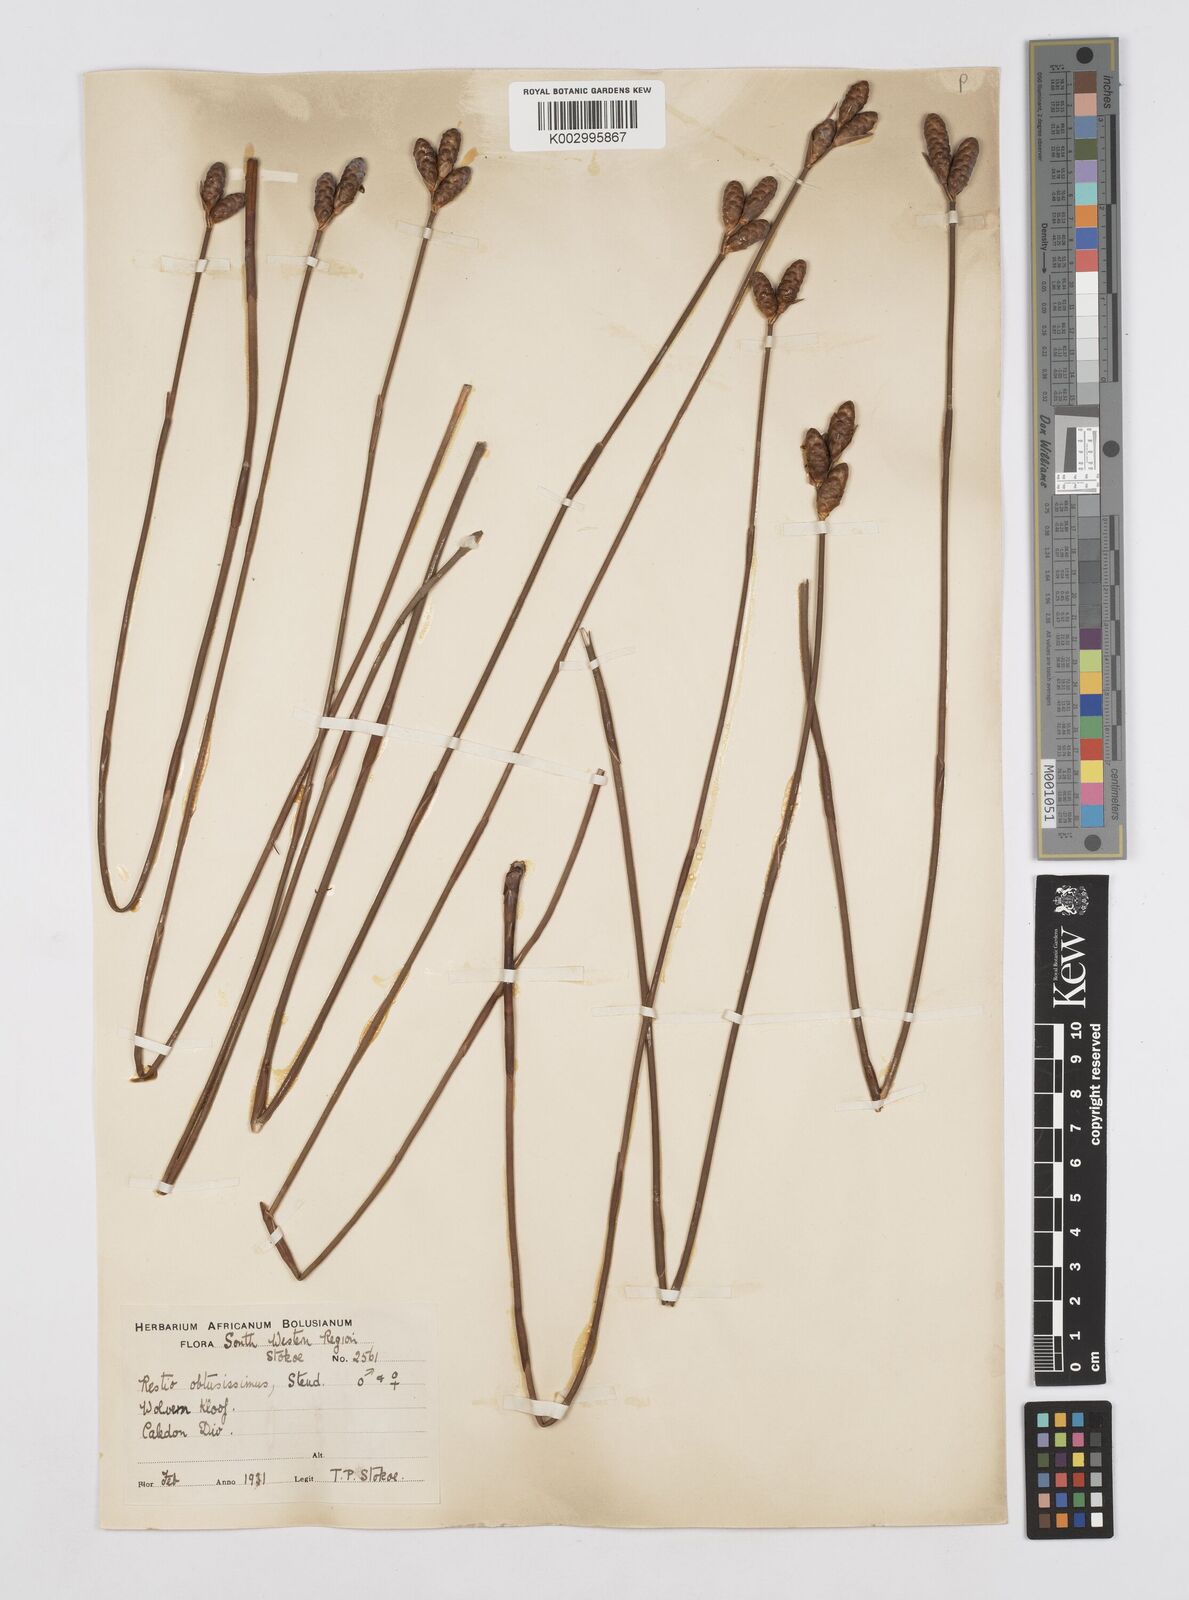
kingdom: Plantae
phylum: Tracheophyta
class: Liliopsida
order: Poales
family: Restionaceae
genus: Nevillea
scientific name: Nevillea obtusissimus
